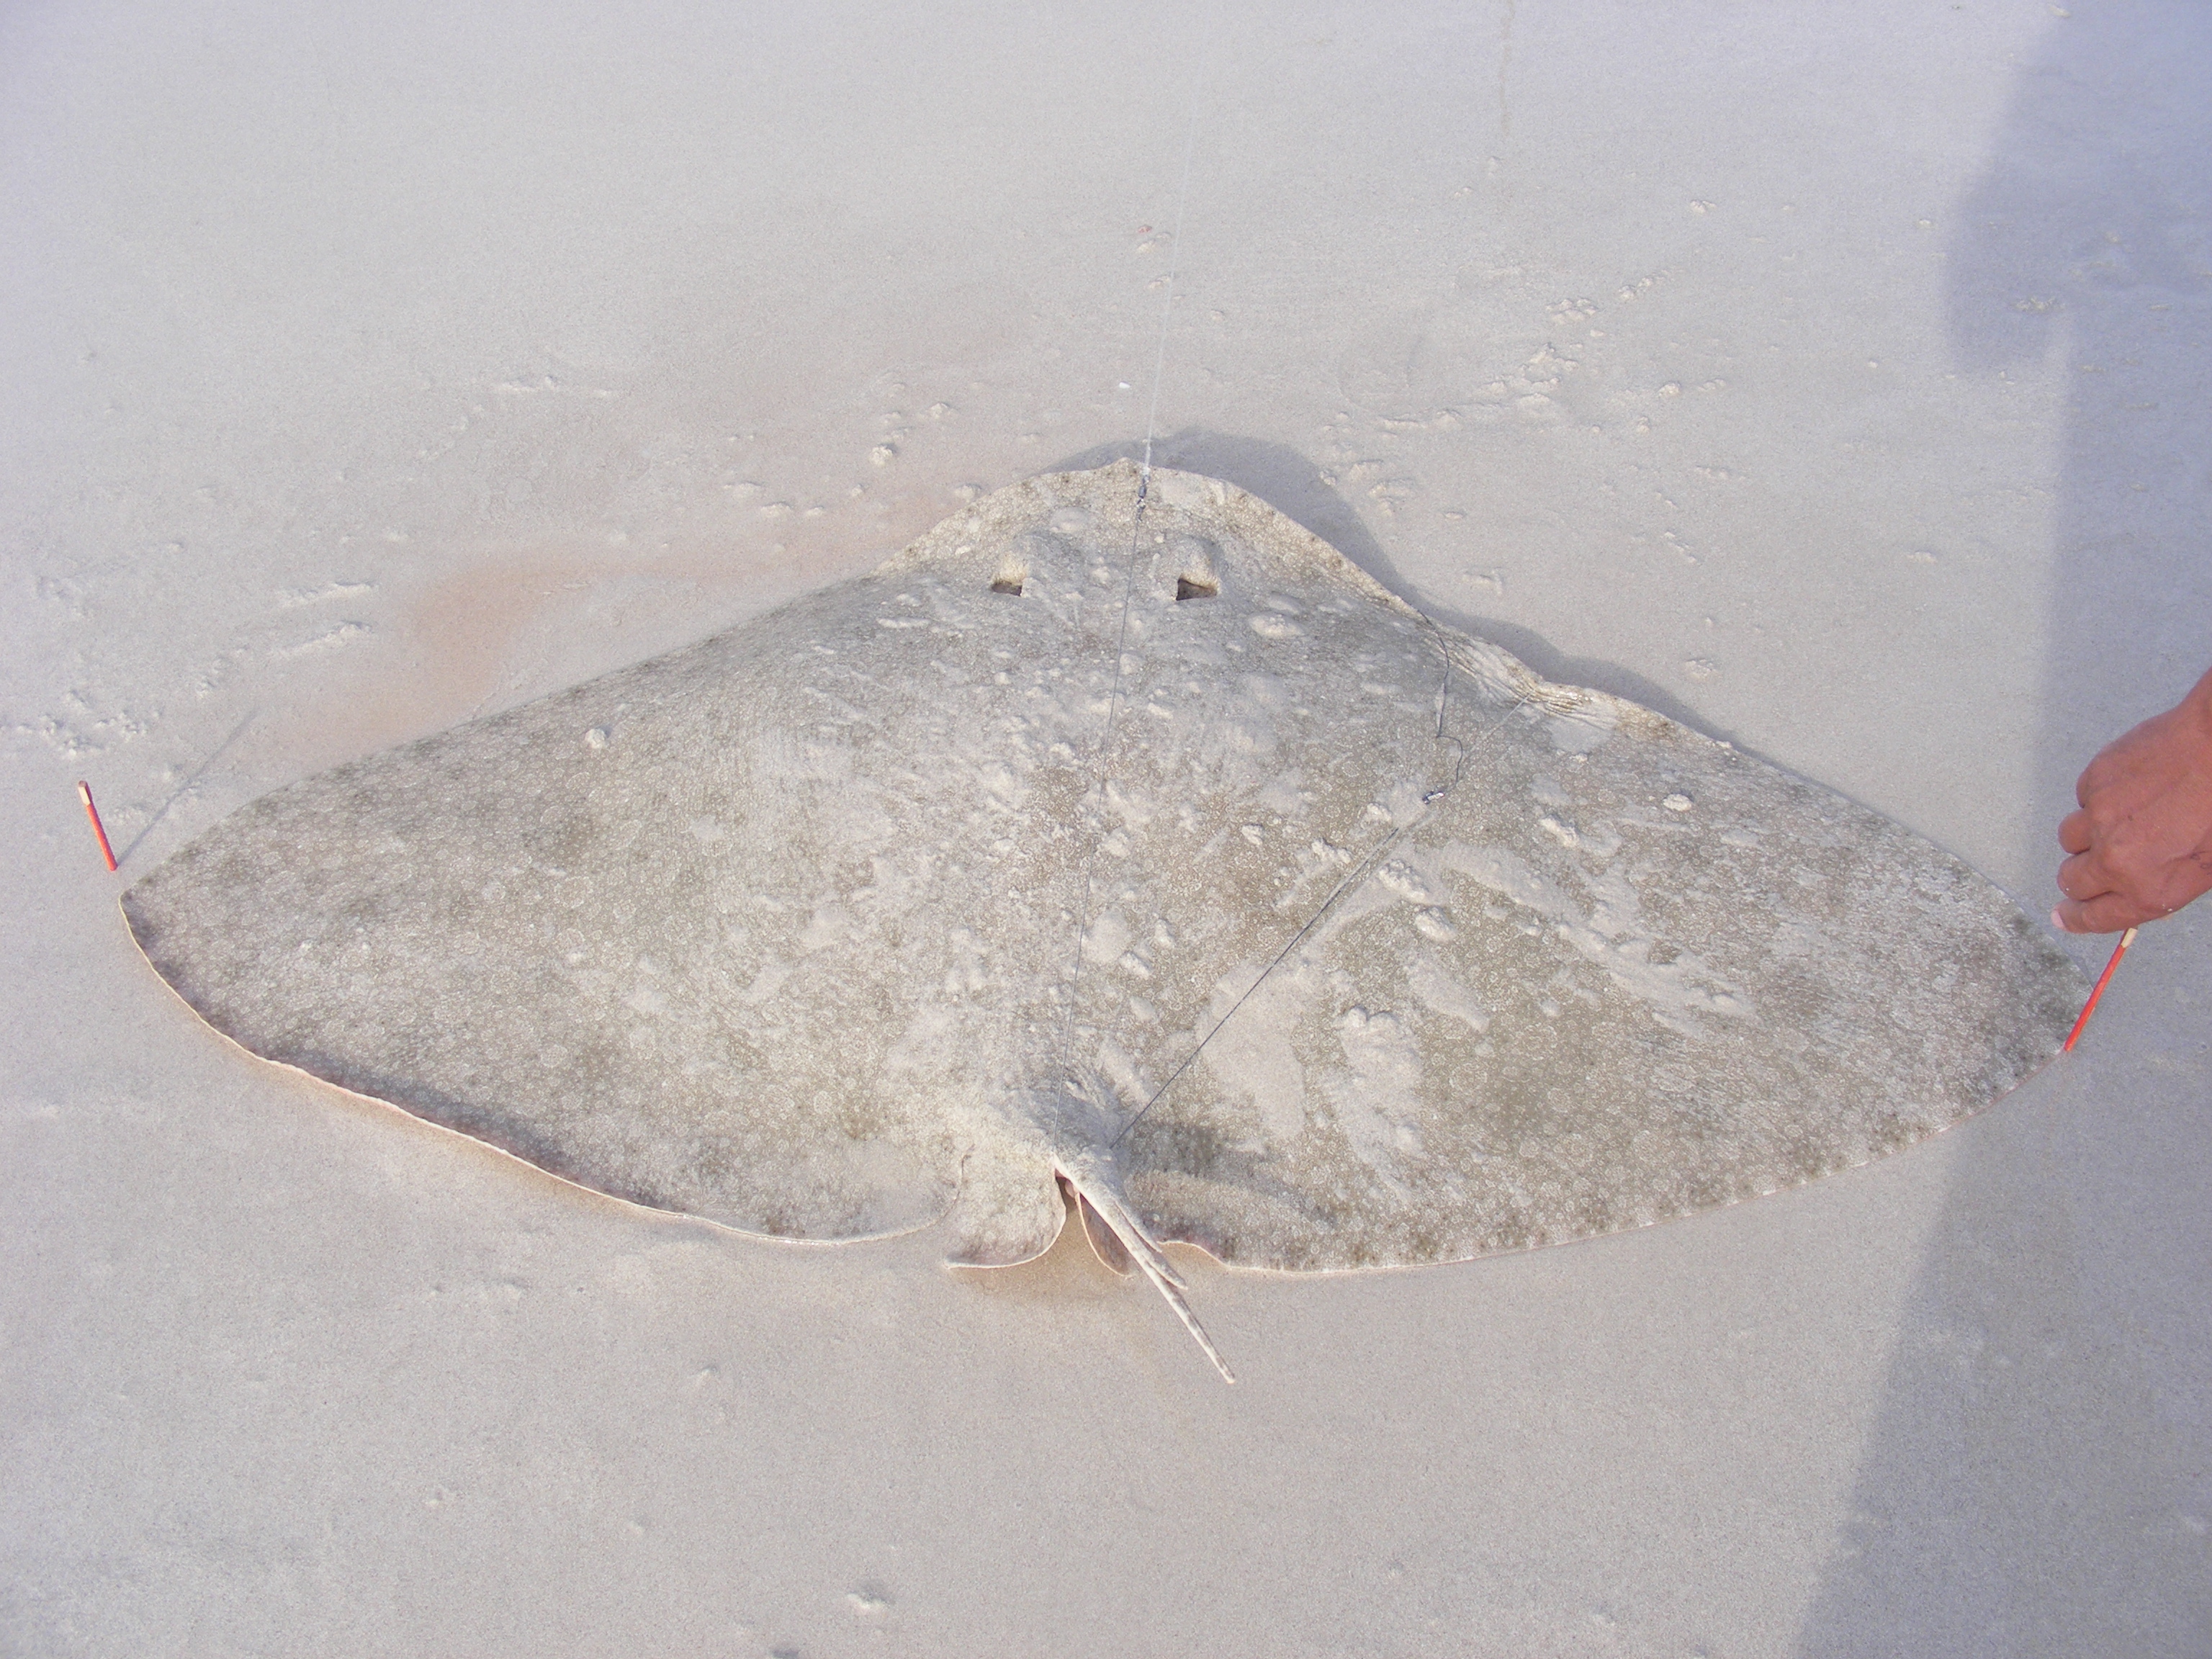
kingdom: Animalia
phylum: Chordata
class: Elasmobranchii
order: Myliobatiformes
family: Gymnuridae
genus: Gymnura
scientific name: Gymnura natalensis
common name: Backwater butterfly ray
